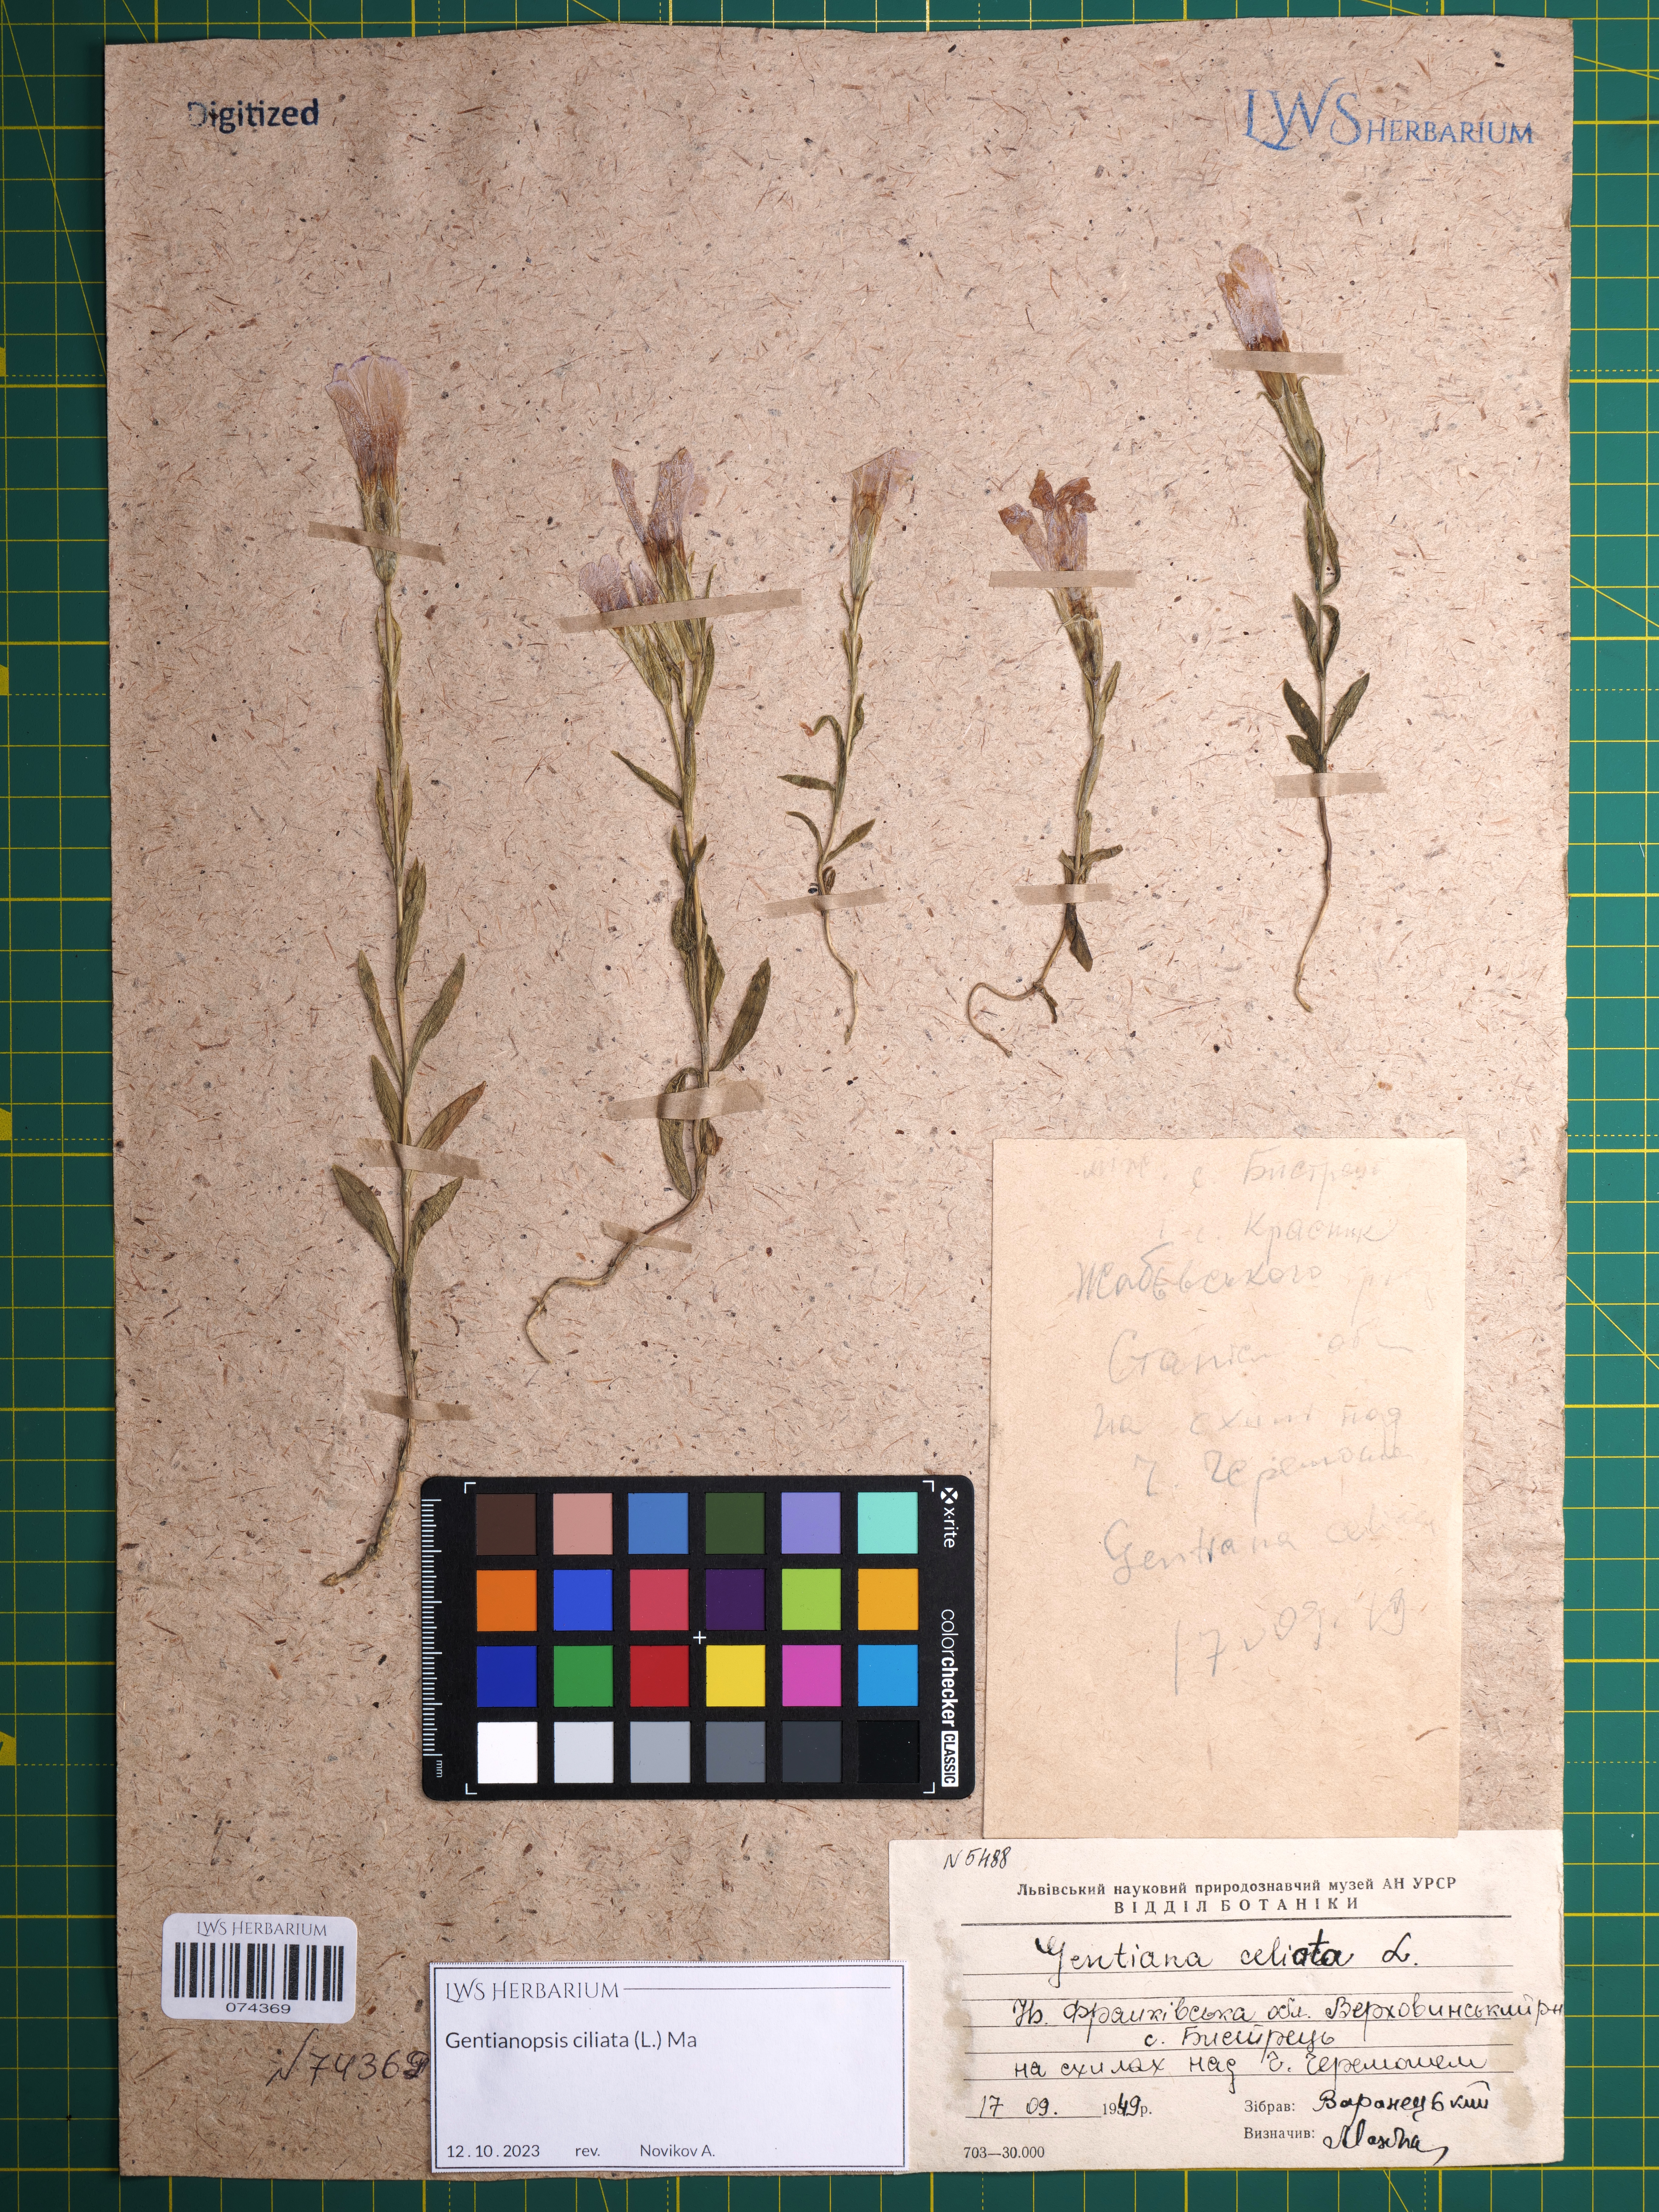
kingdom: Plantae
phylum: Tracheophyta
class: Magnoliopsida
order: Gentianales
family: Gentianaceae
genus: Gentianopsis
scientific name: Gentianopsis ciliata
